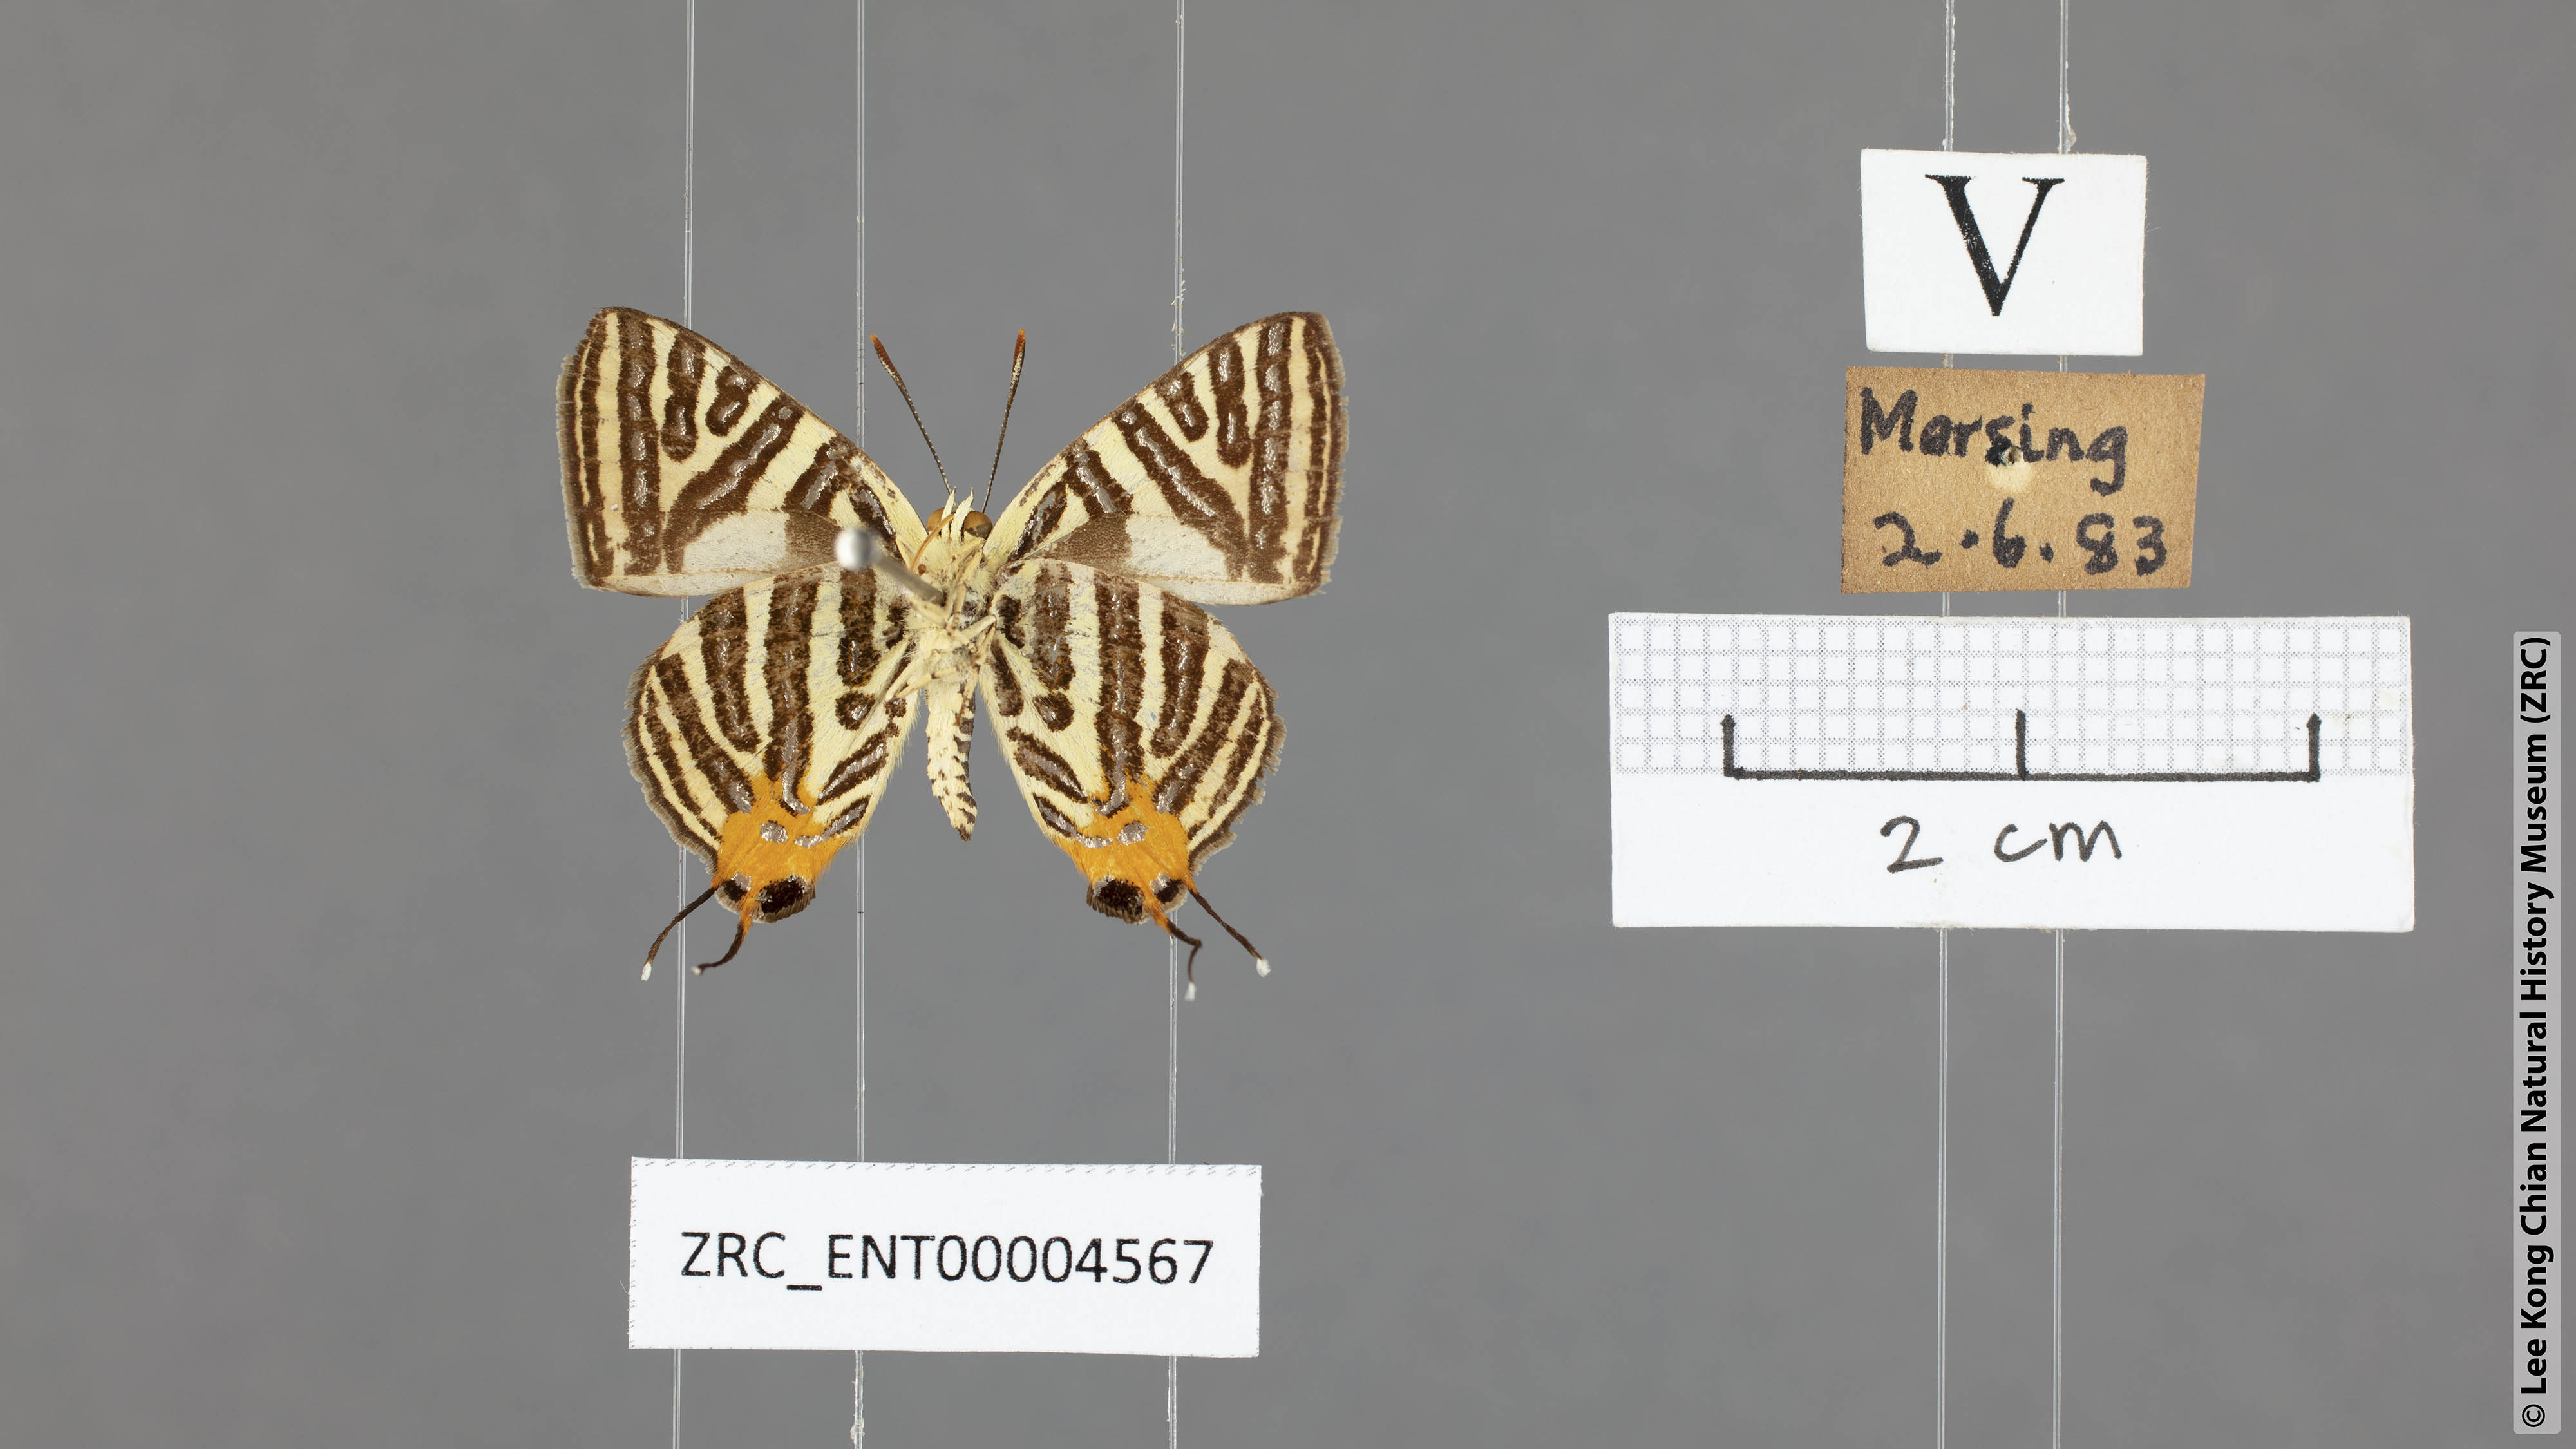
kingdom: Animalia
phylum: Arthropoda
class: Insecta
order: Lepidoptera
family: Lycaenidae
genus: Spindasis
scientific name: Spindasis syama
